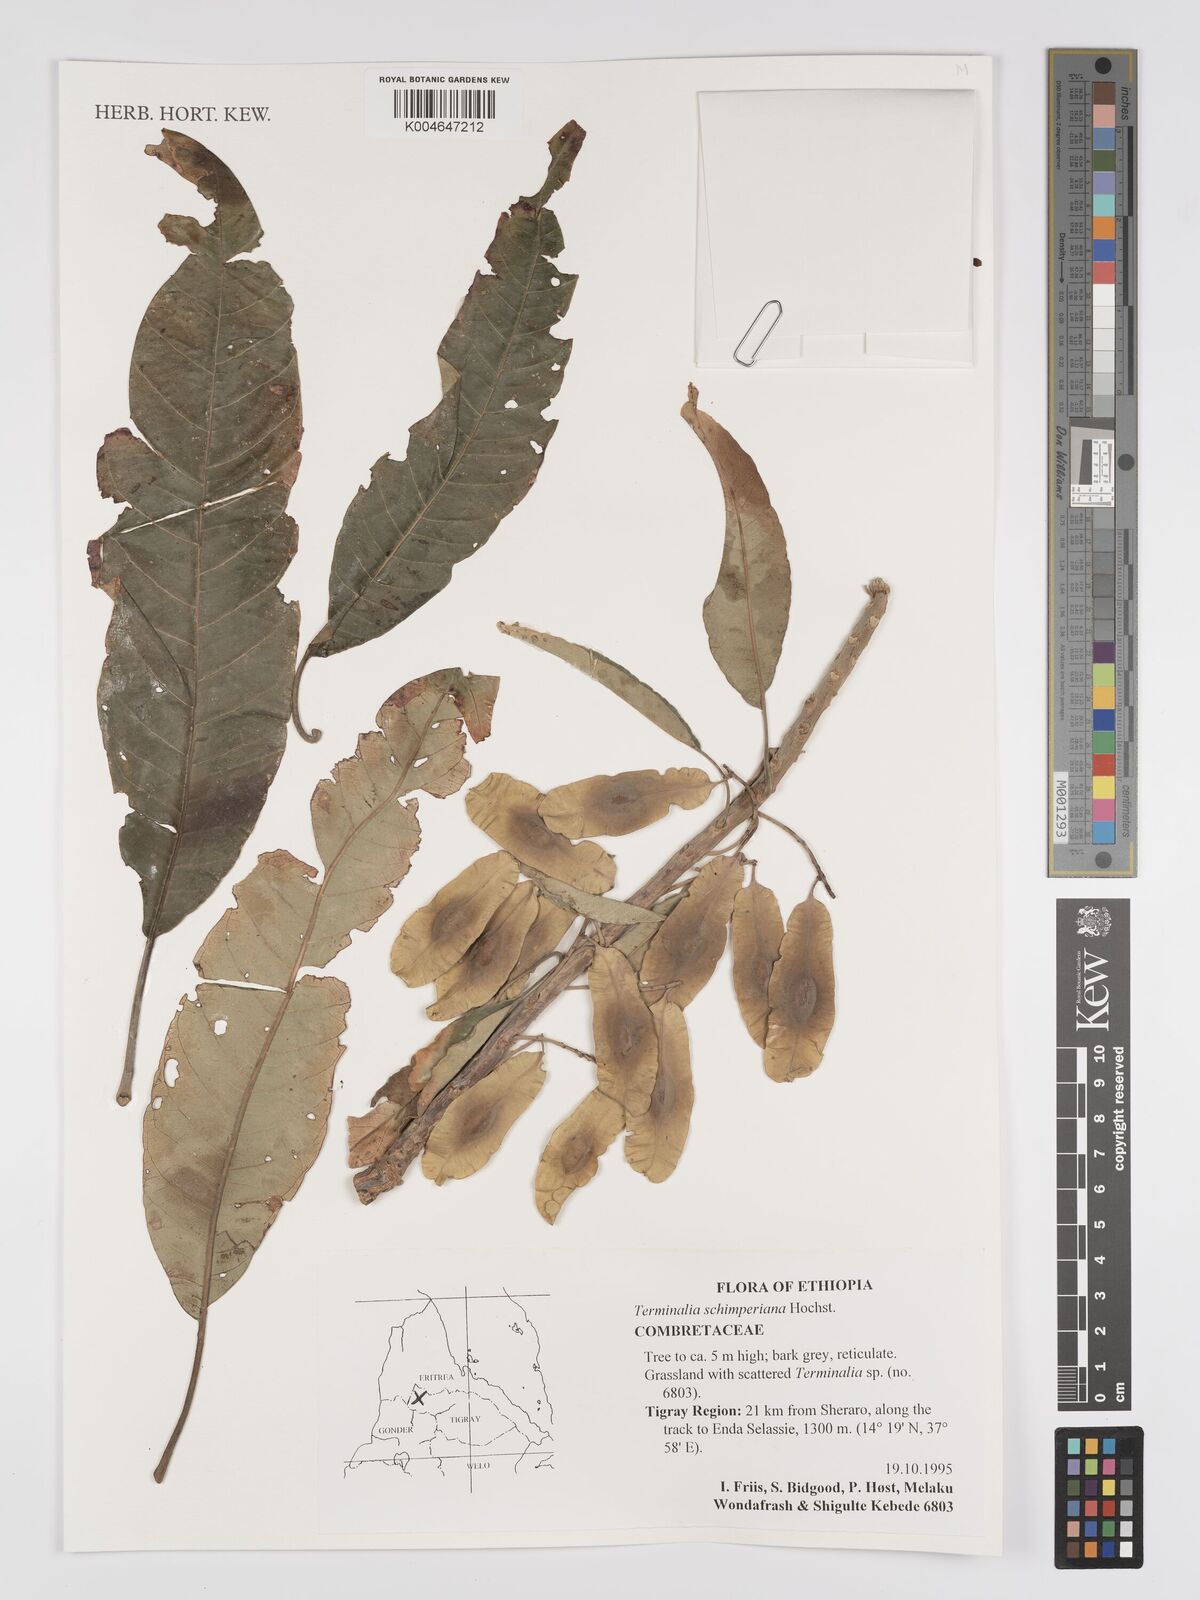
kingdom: Plantae
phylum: Tracheophyta
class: Magnoliopsida
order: Myrtales
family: Combretaceae
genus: Terminalia
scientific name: Terminalia schimperiana
